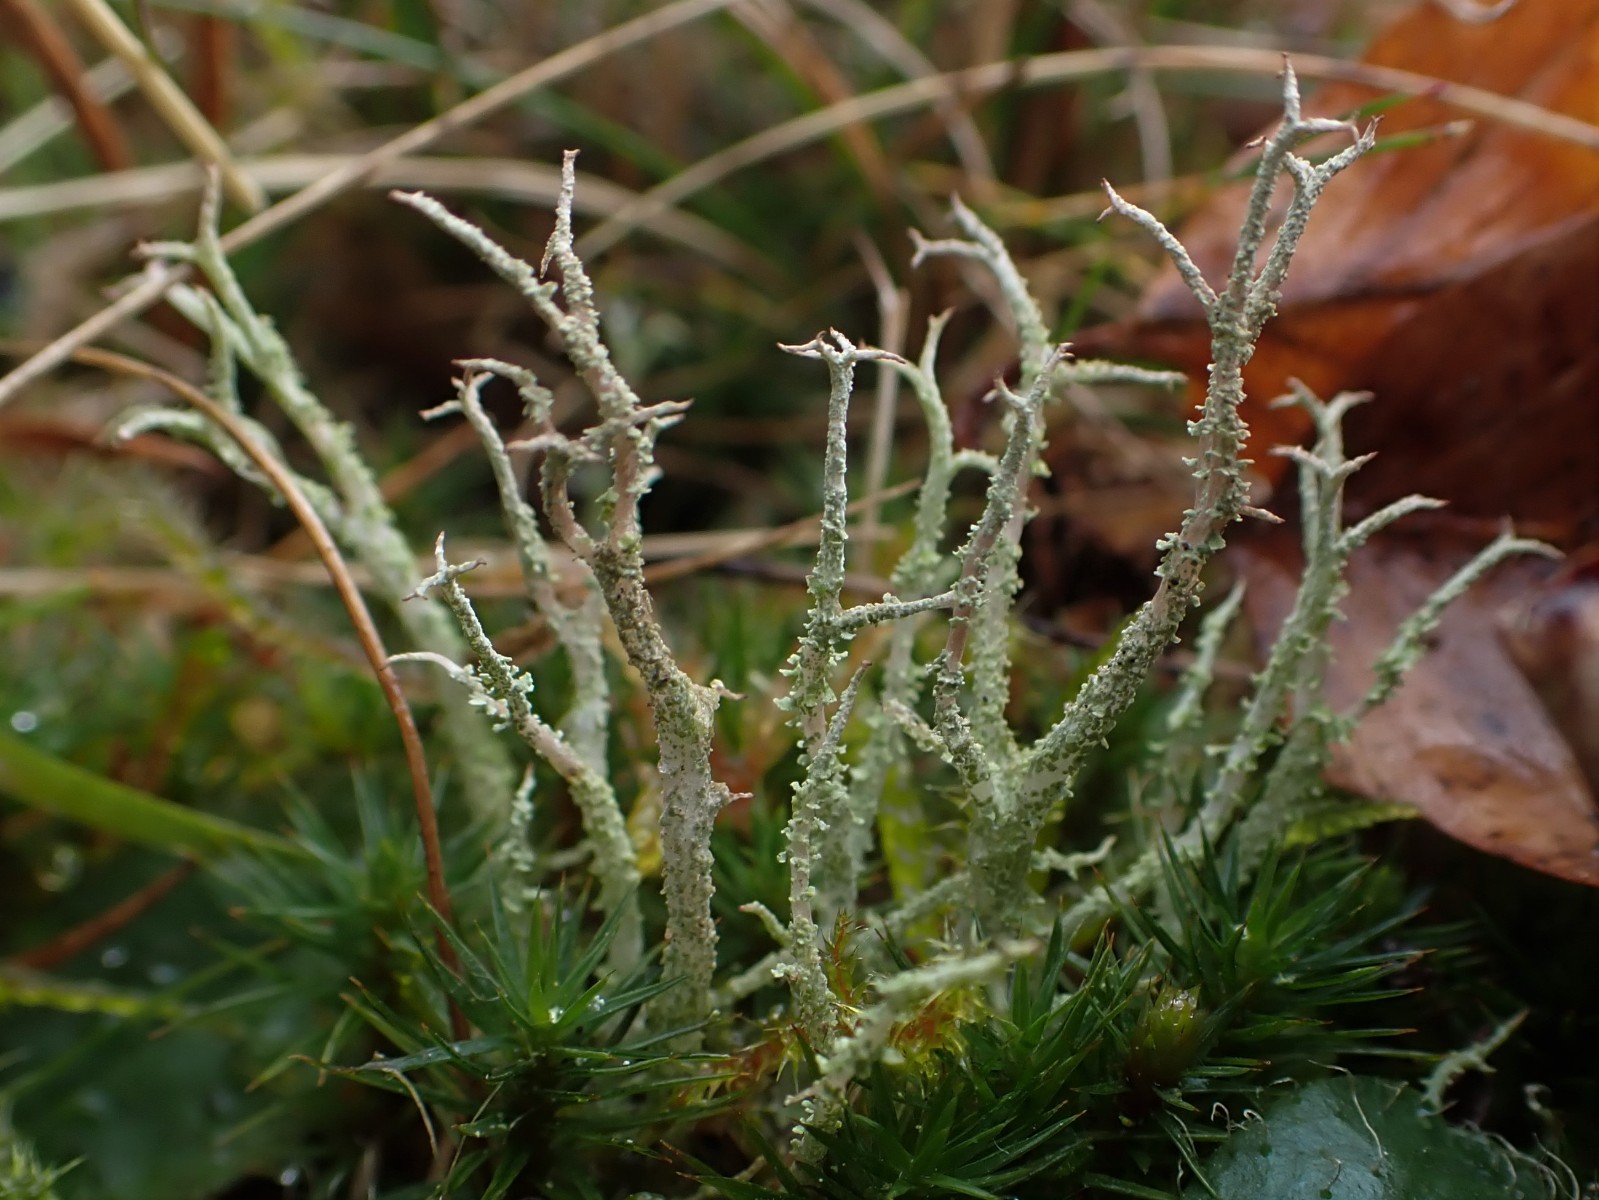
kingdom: Fungi
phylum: Ascomycota
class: Lecanoromycetes
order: Lecanorales
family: Cladoniaceae
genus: Cladonia
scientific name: Cladonia scabriuscula
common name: ru bægerlav
